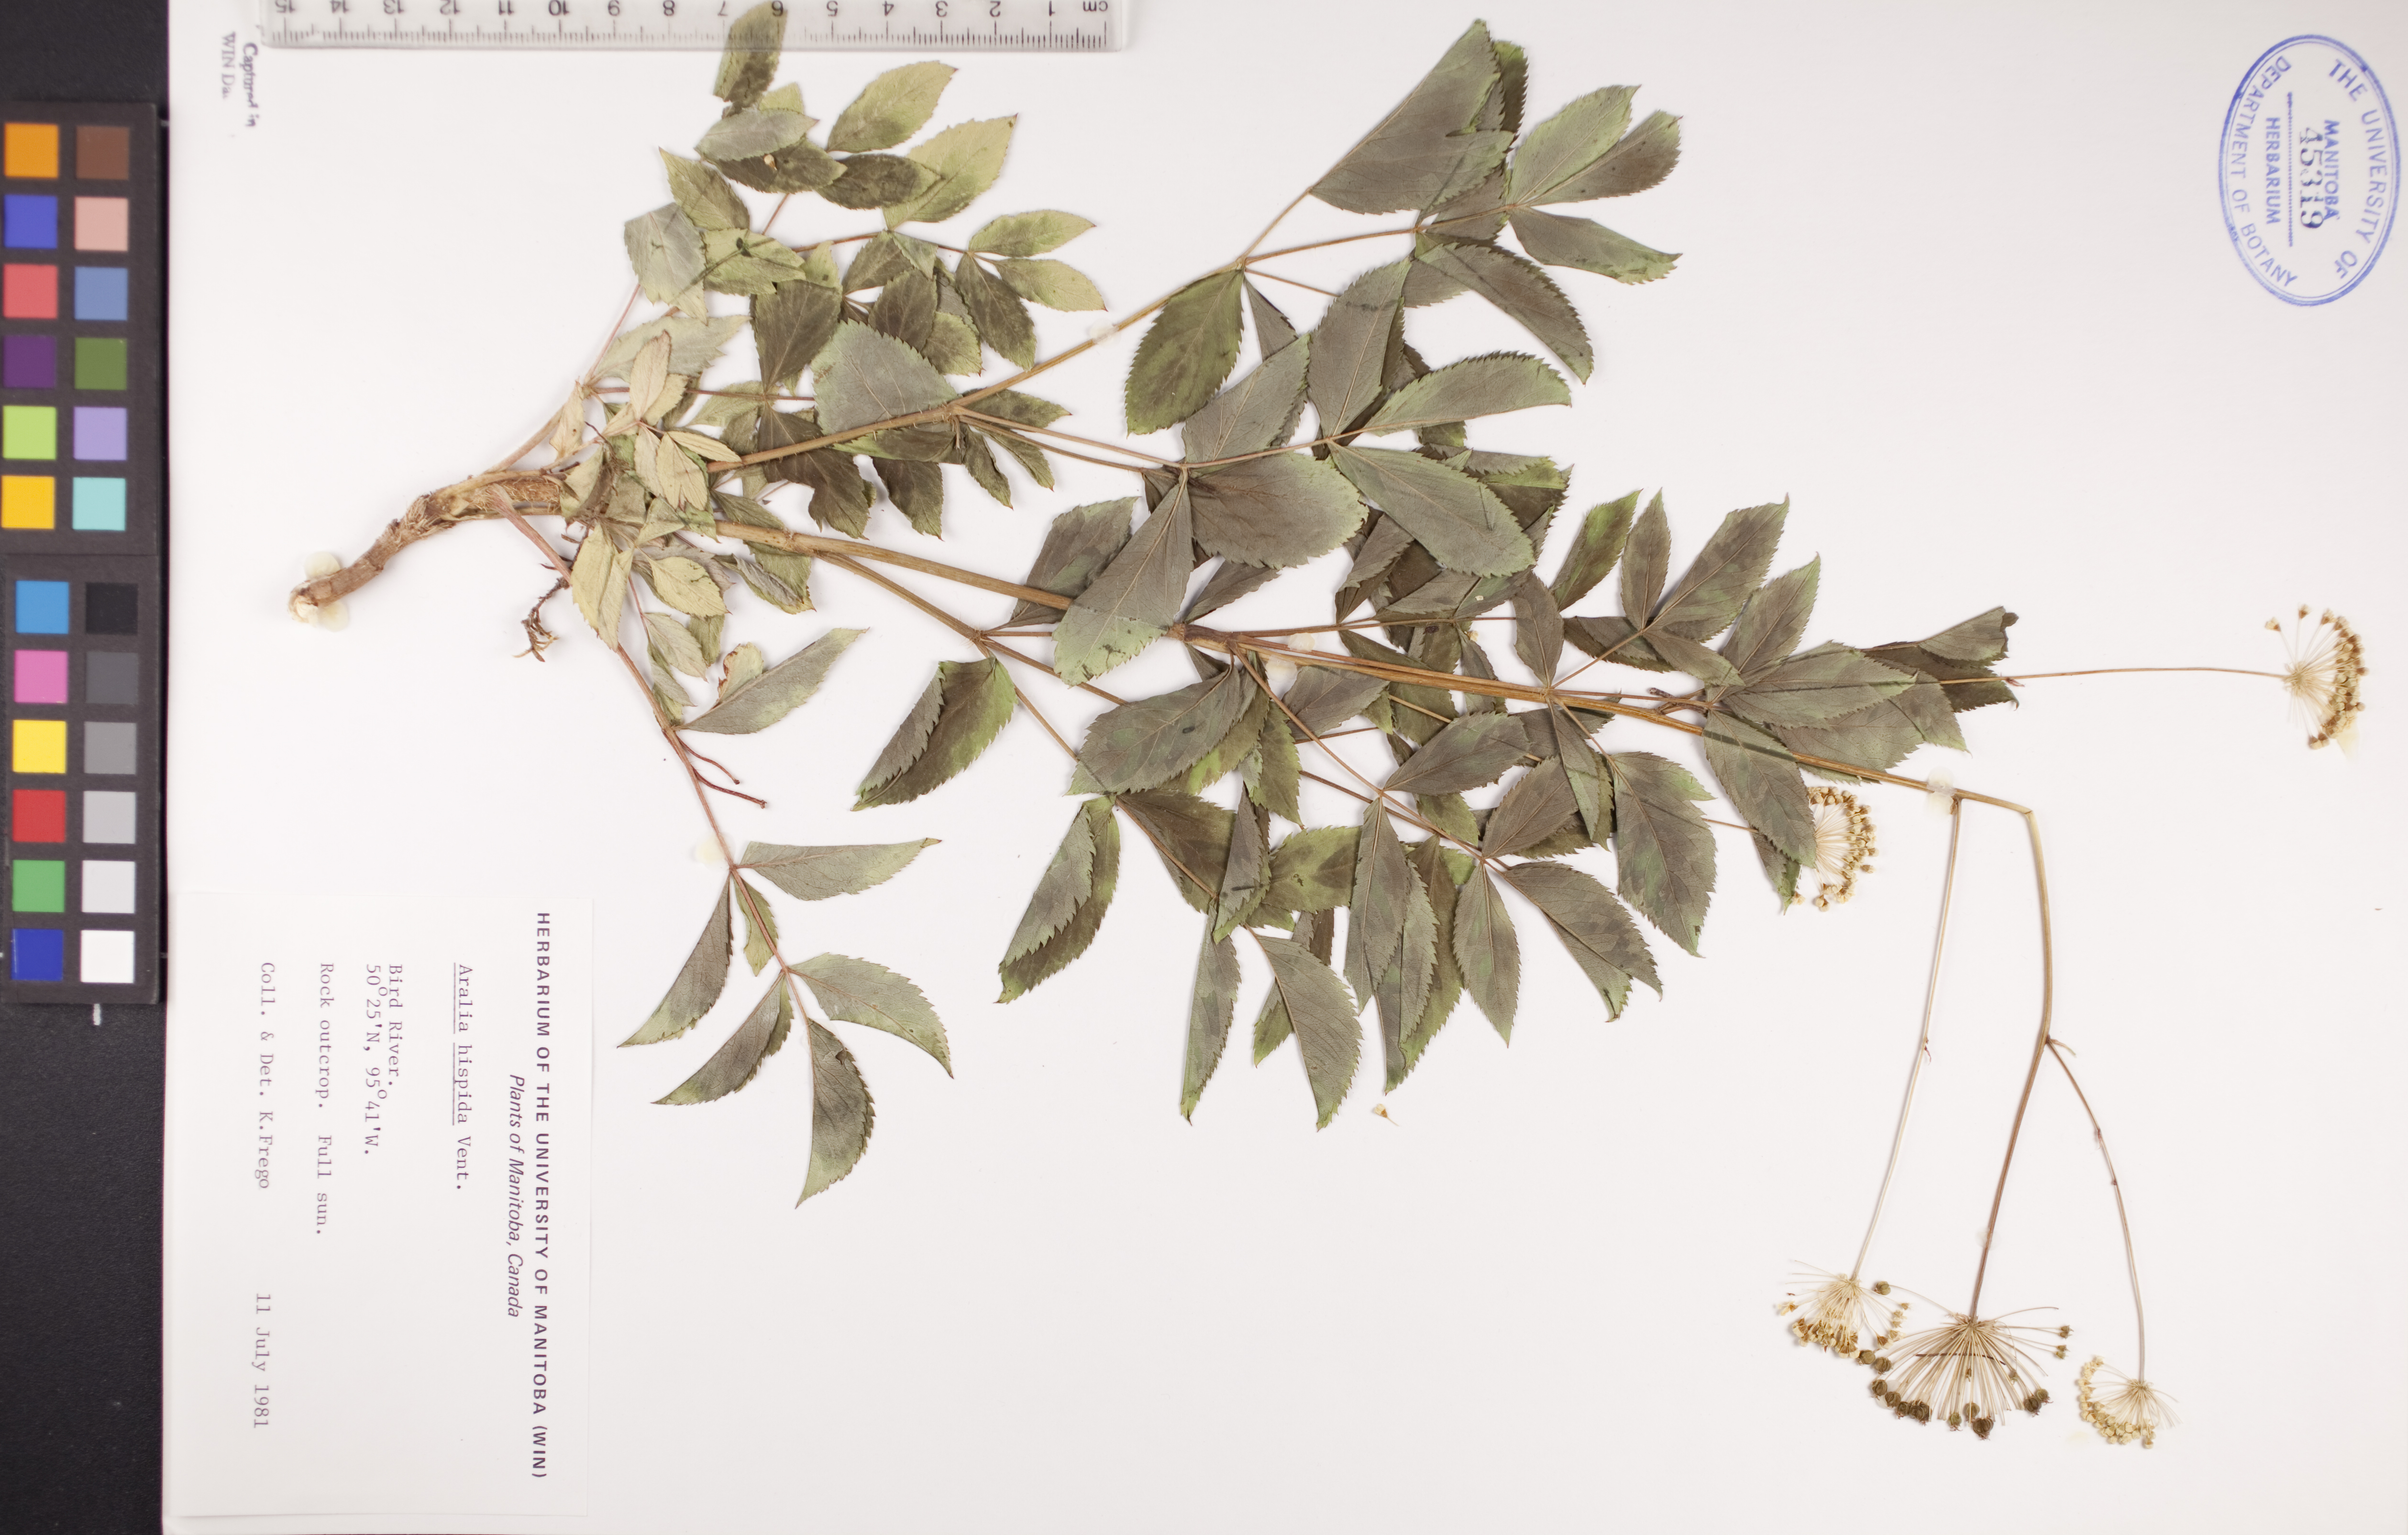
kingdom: Plantae
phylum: Tracheophyta
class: Magnoliopsida
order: Apiales
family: Araliaceae
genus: Aralia
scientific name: Aralia hispida
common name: Bristly sarsaparilla
